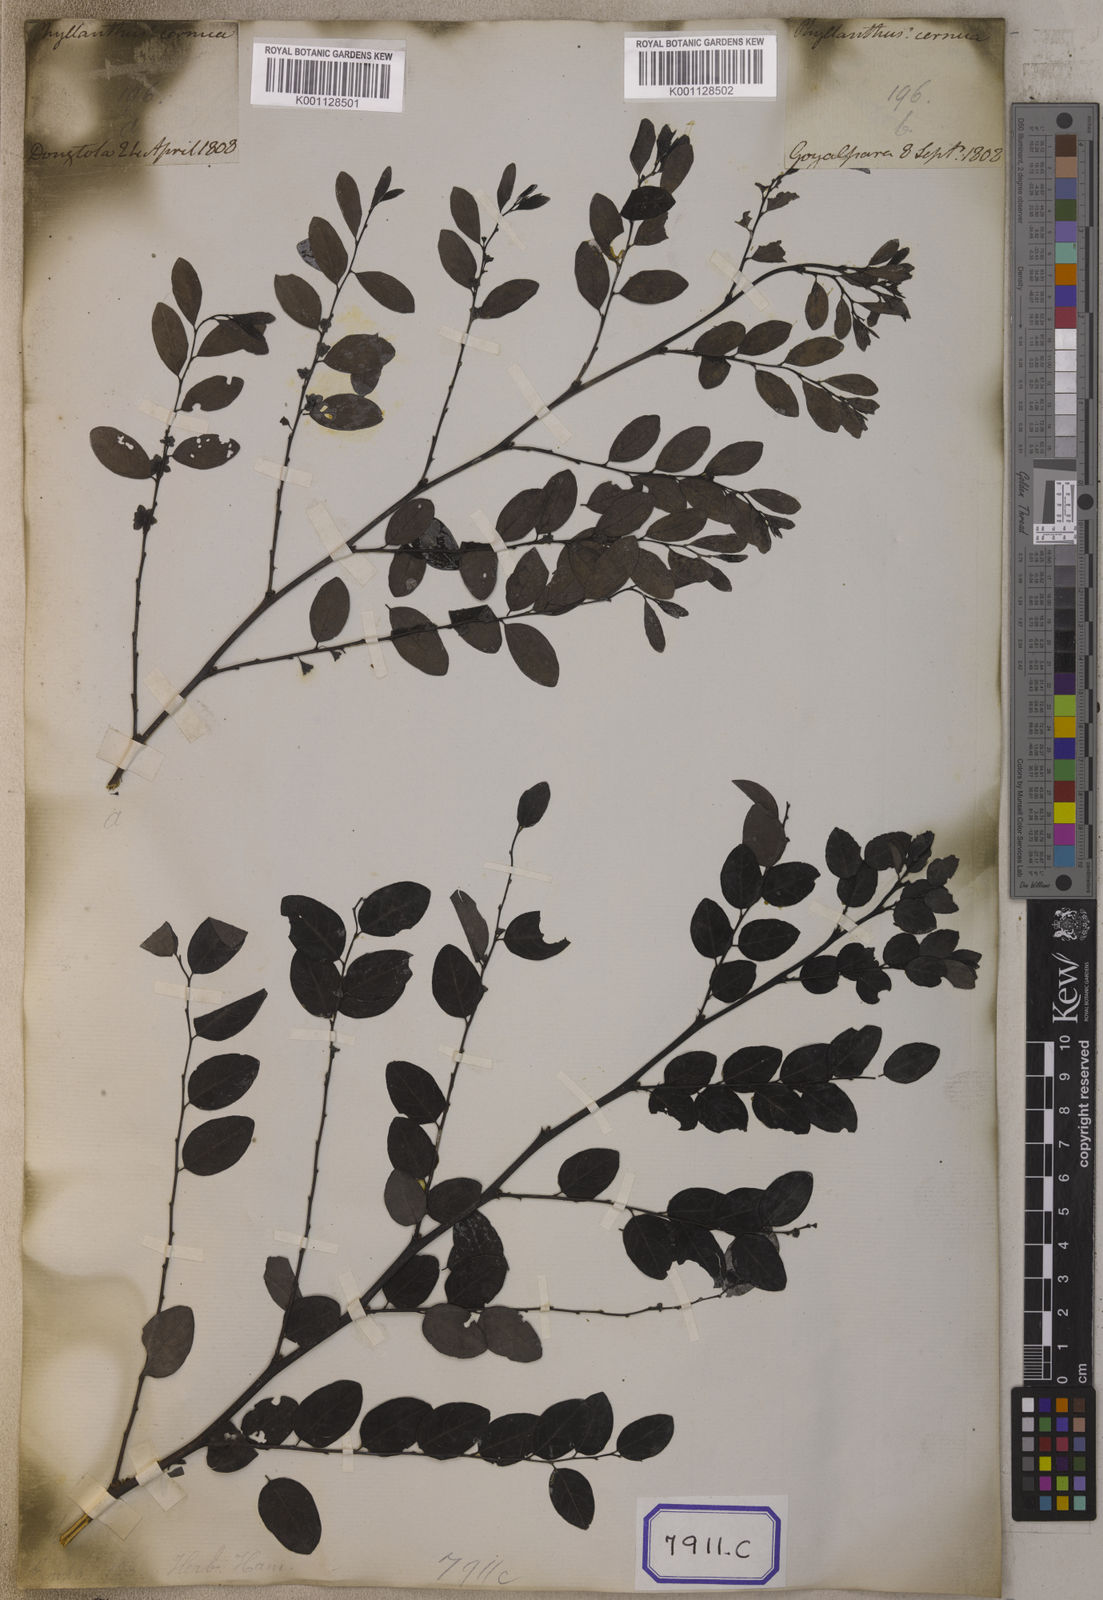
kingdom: Plantae
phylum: Tracheophyta
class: Magnoliopsida
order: Malpighiales
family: Euphorbiaceae
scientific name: Euphorbiaceae
